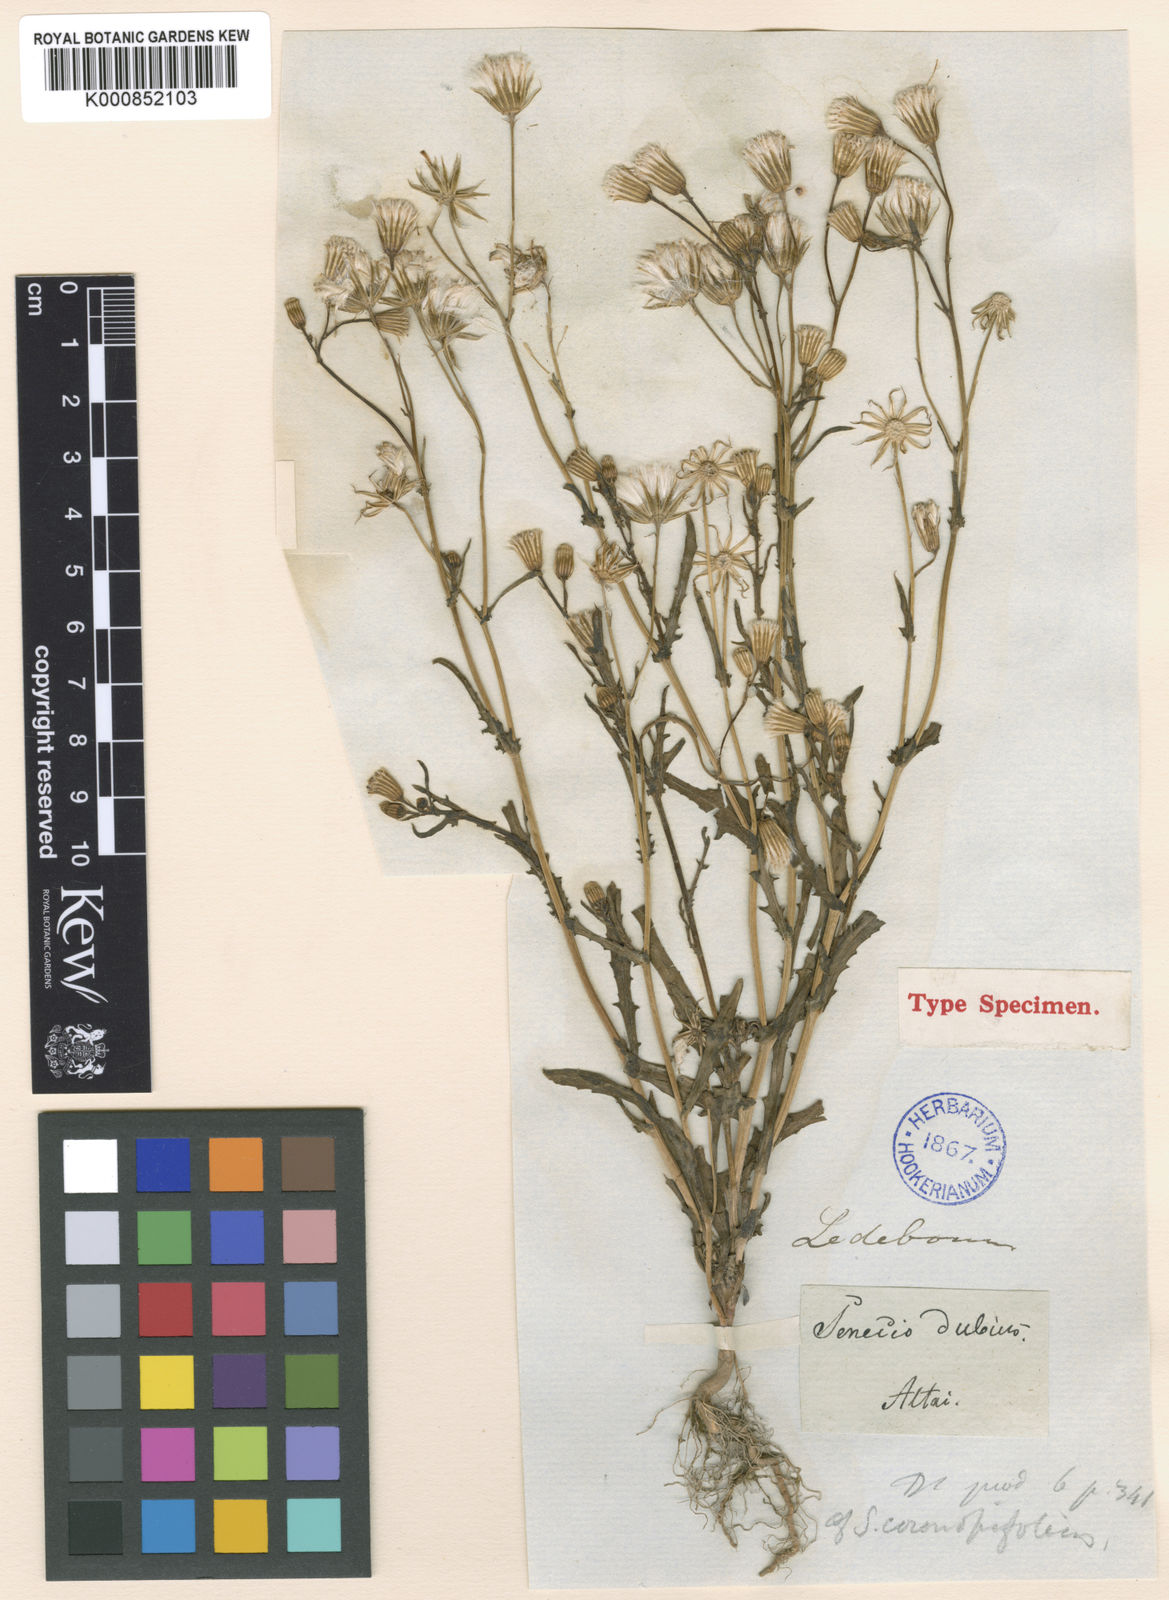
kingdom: Plantae
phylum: Tracheophyta
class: Magnoliopsida
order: Asterales
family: Asteraceae
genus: Senecio
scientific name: Senecio dubitabilis
